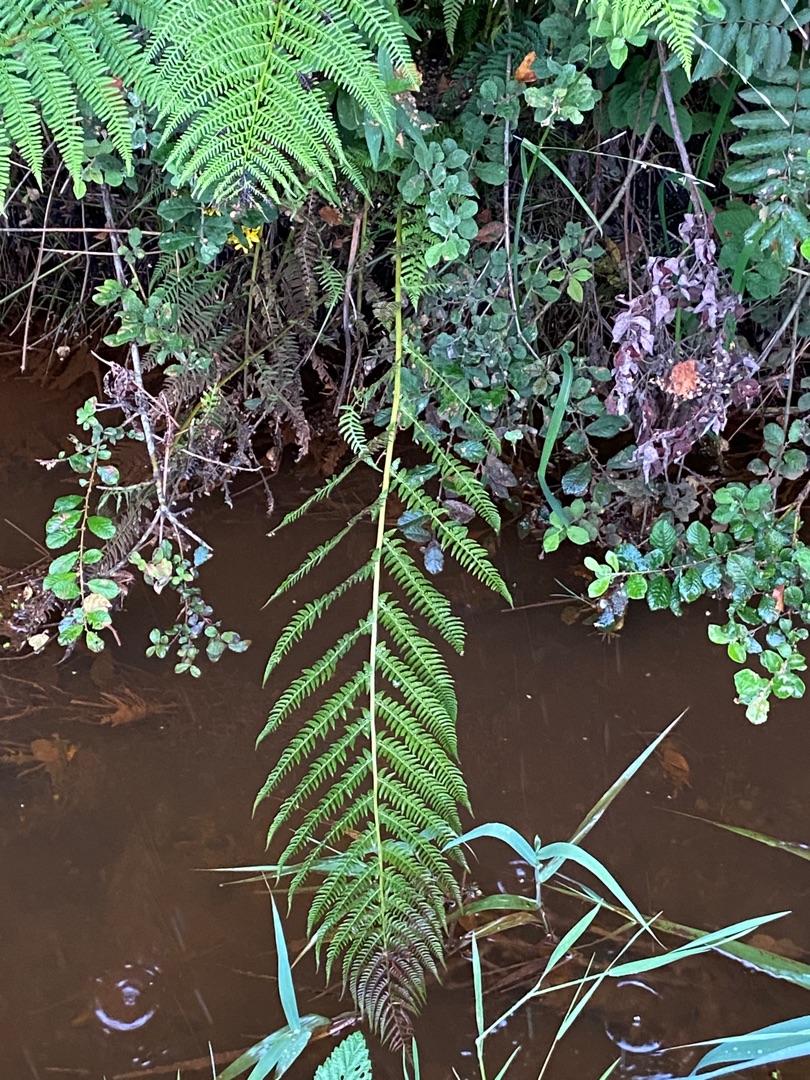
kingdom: Plantae
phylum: Tracheophyta
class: Polypodiopsida
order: Polypodiales
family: Athyriaceae
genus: Athyrium
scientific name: Athyrium filix-femina
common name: Fjerbregne
